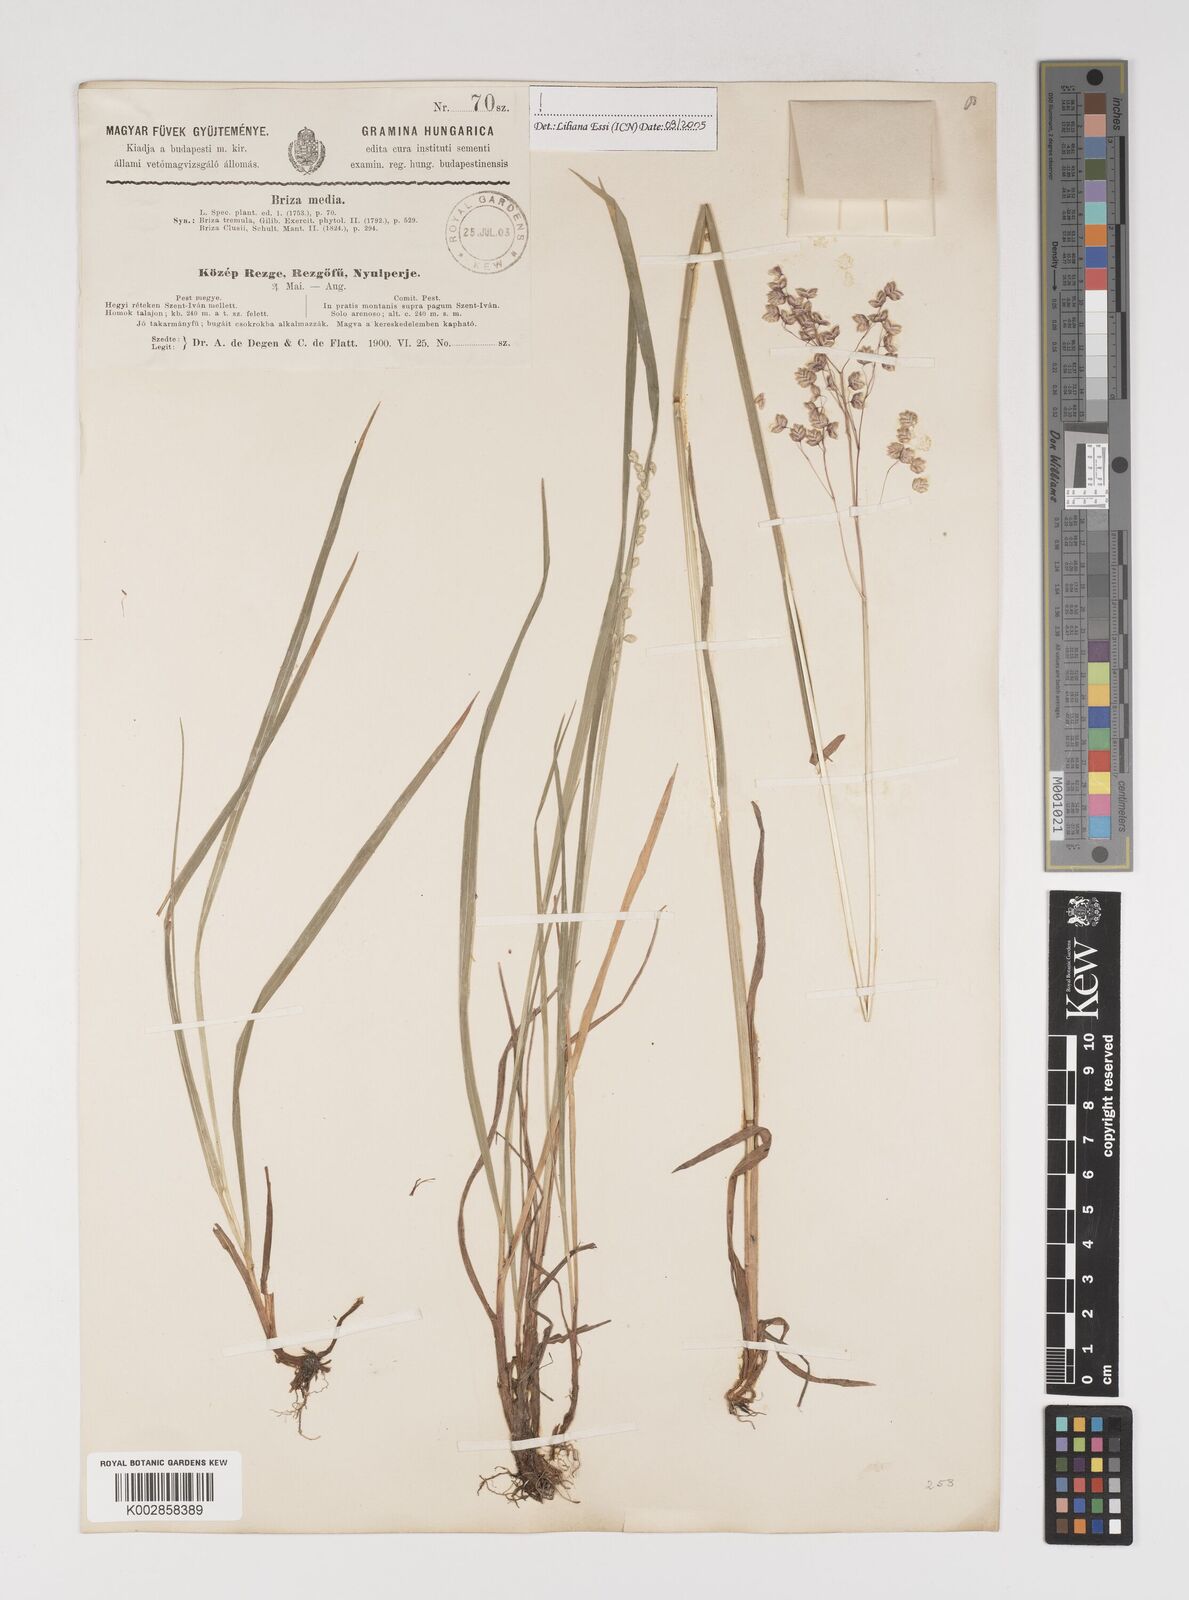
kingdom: Plantae
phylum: Tracheophyta
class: Liliopsida
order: Poales
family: Poaceae
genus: Briza
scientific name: Briza media
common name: Quaking grass
